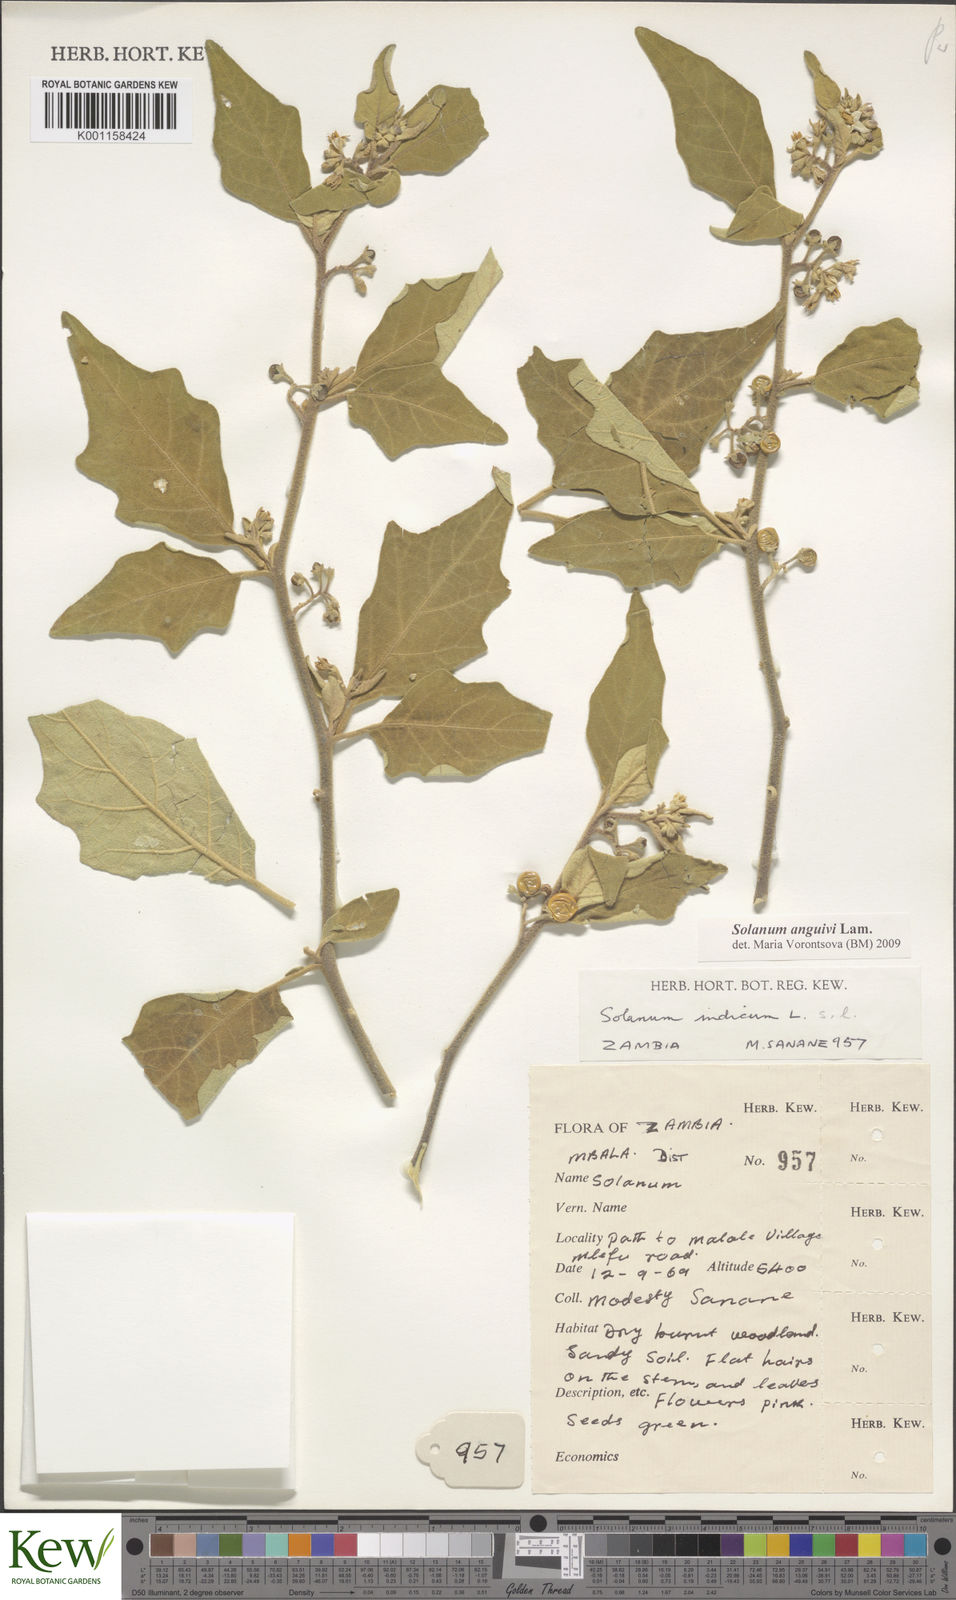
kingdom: Plantae
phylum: Tracheophyta
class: Magnoliopsida
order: Solanales
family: Solanaceae
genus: Solanum
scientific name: Solanum anguivi
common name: Forest bitterberry
